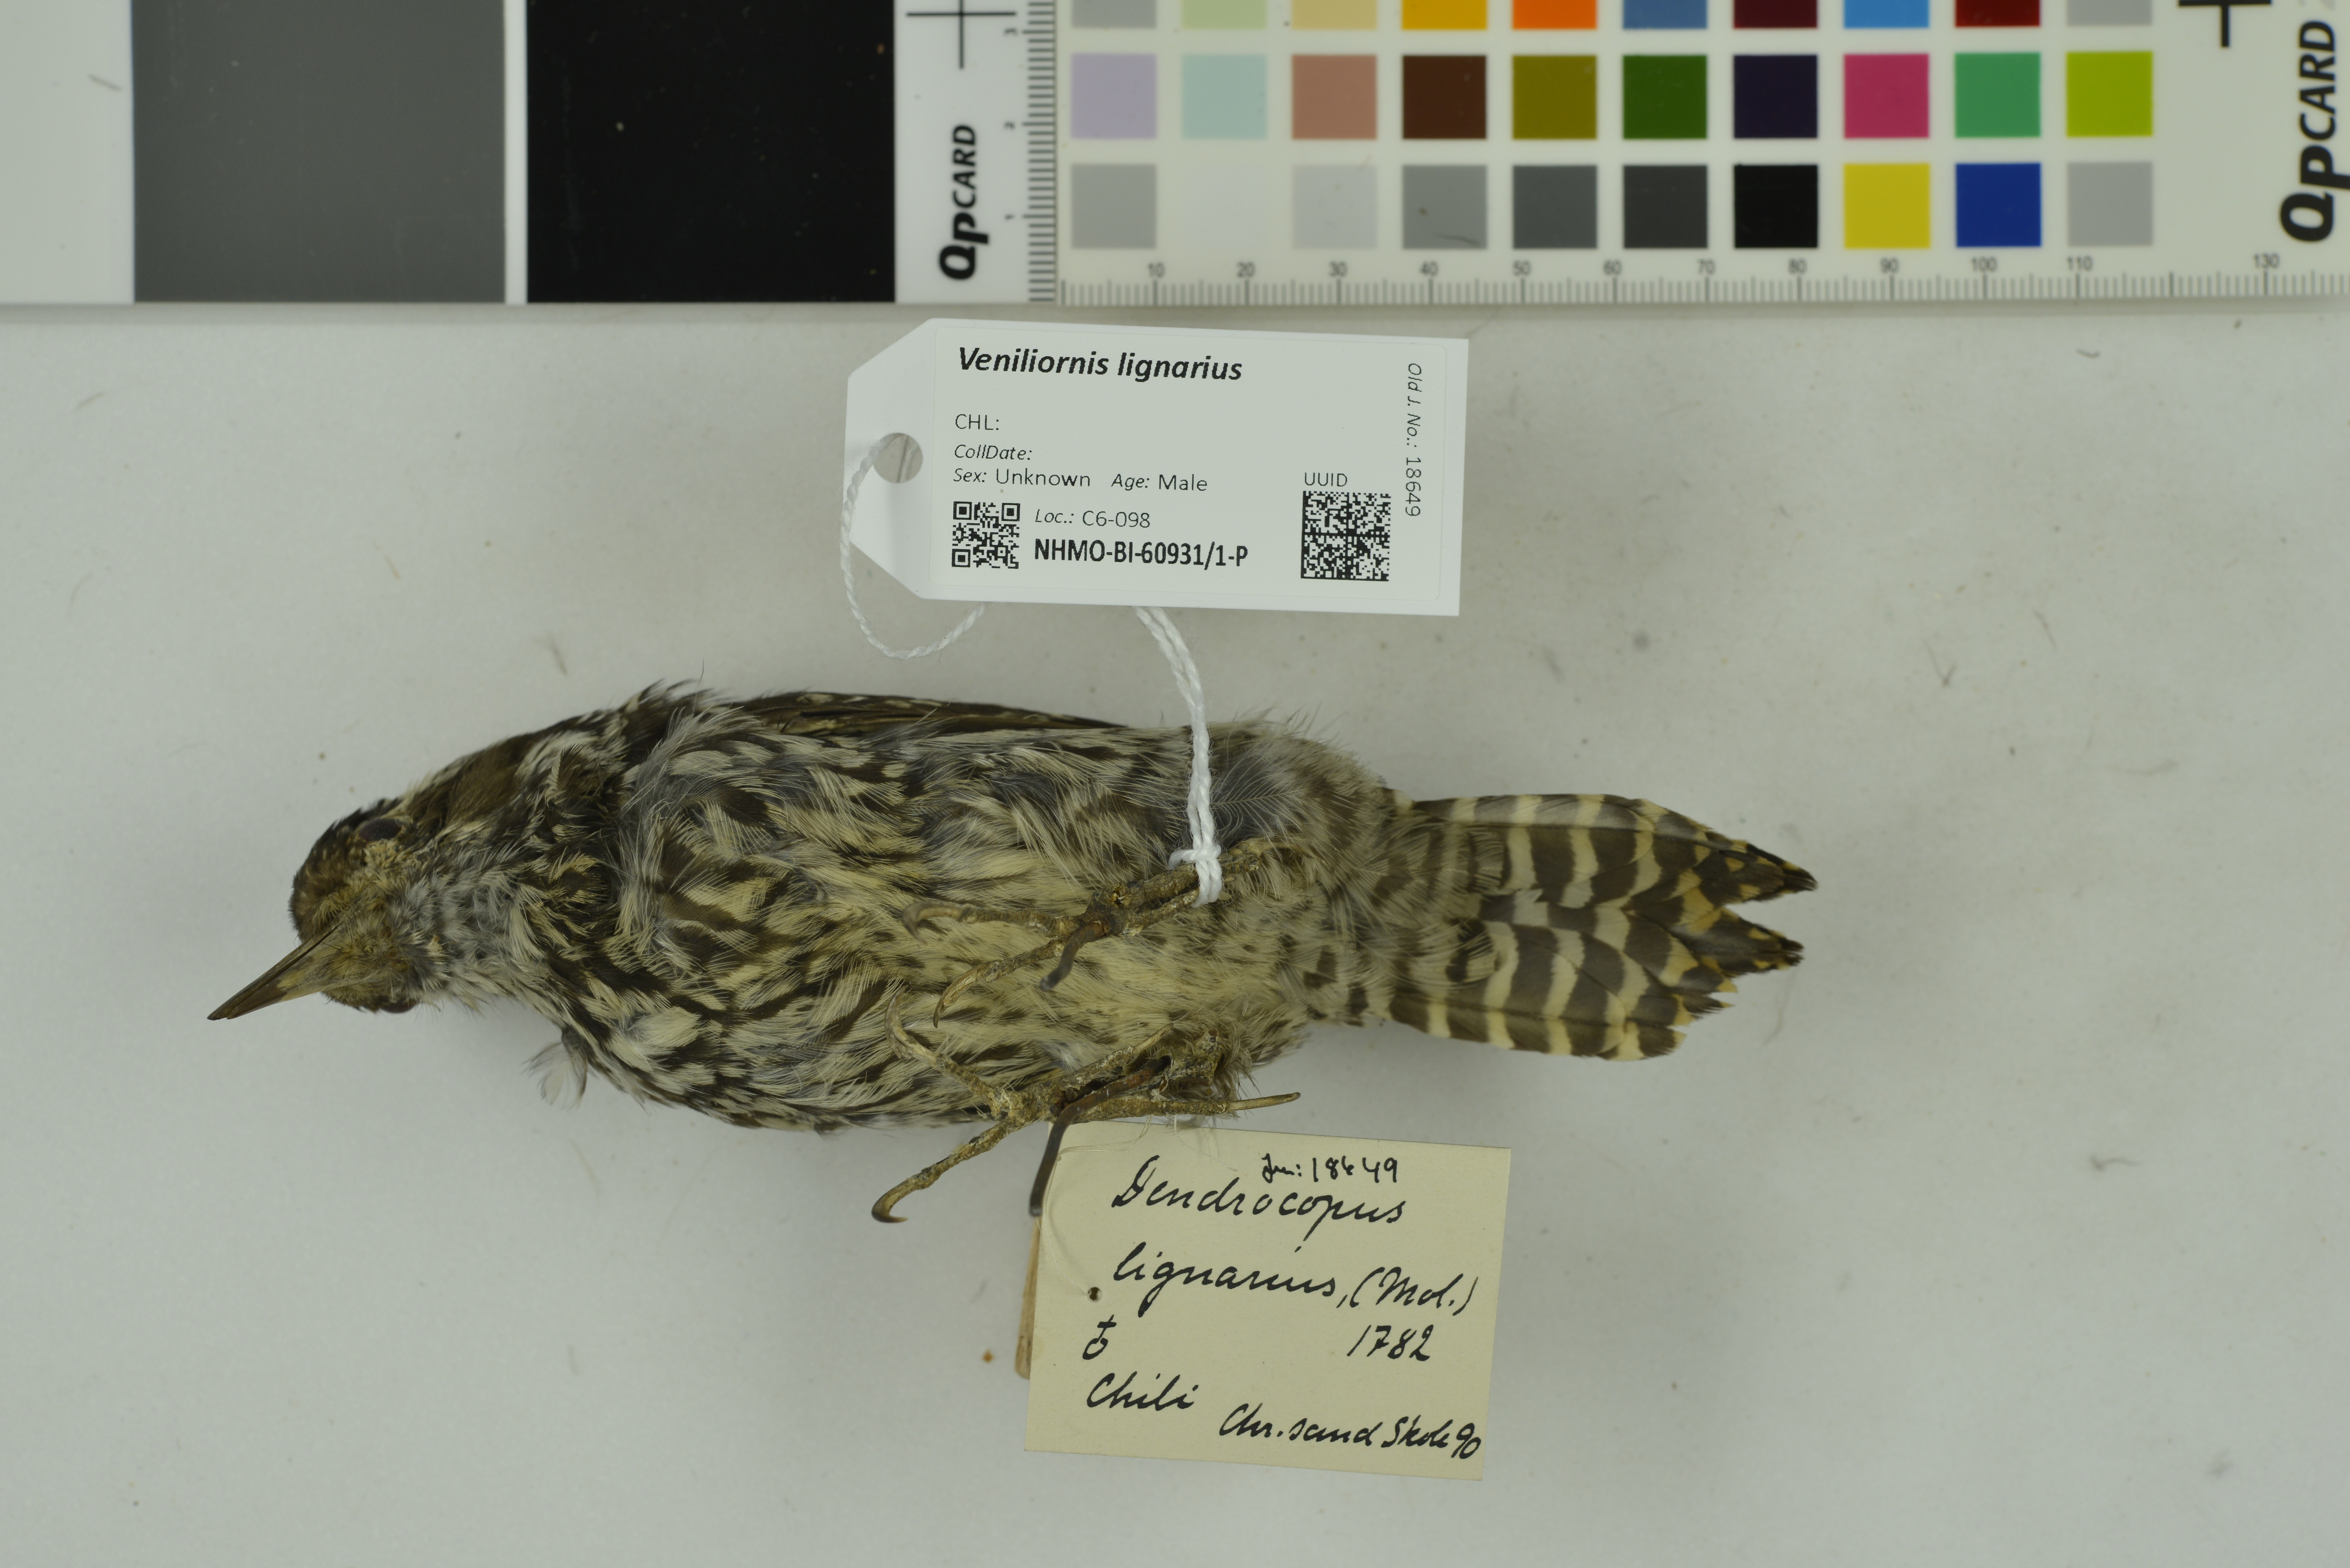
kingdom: Animalia
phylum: Chordata
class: Aves
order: Piciformes
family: Picidae
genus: Veniliornis
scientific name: Veniliornis lignarius
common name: Striped woodpecker
